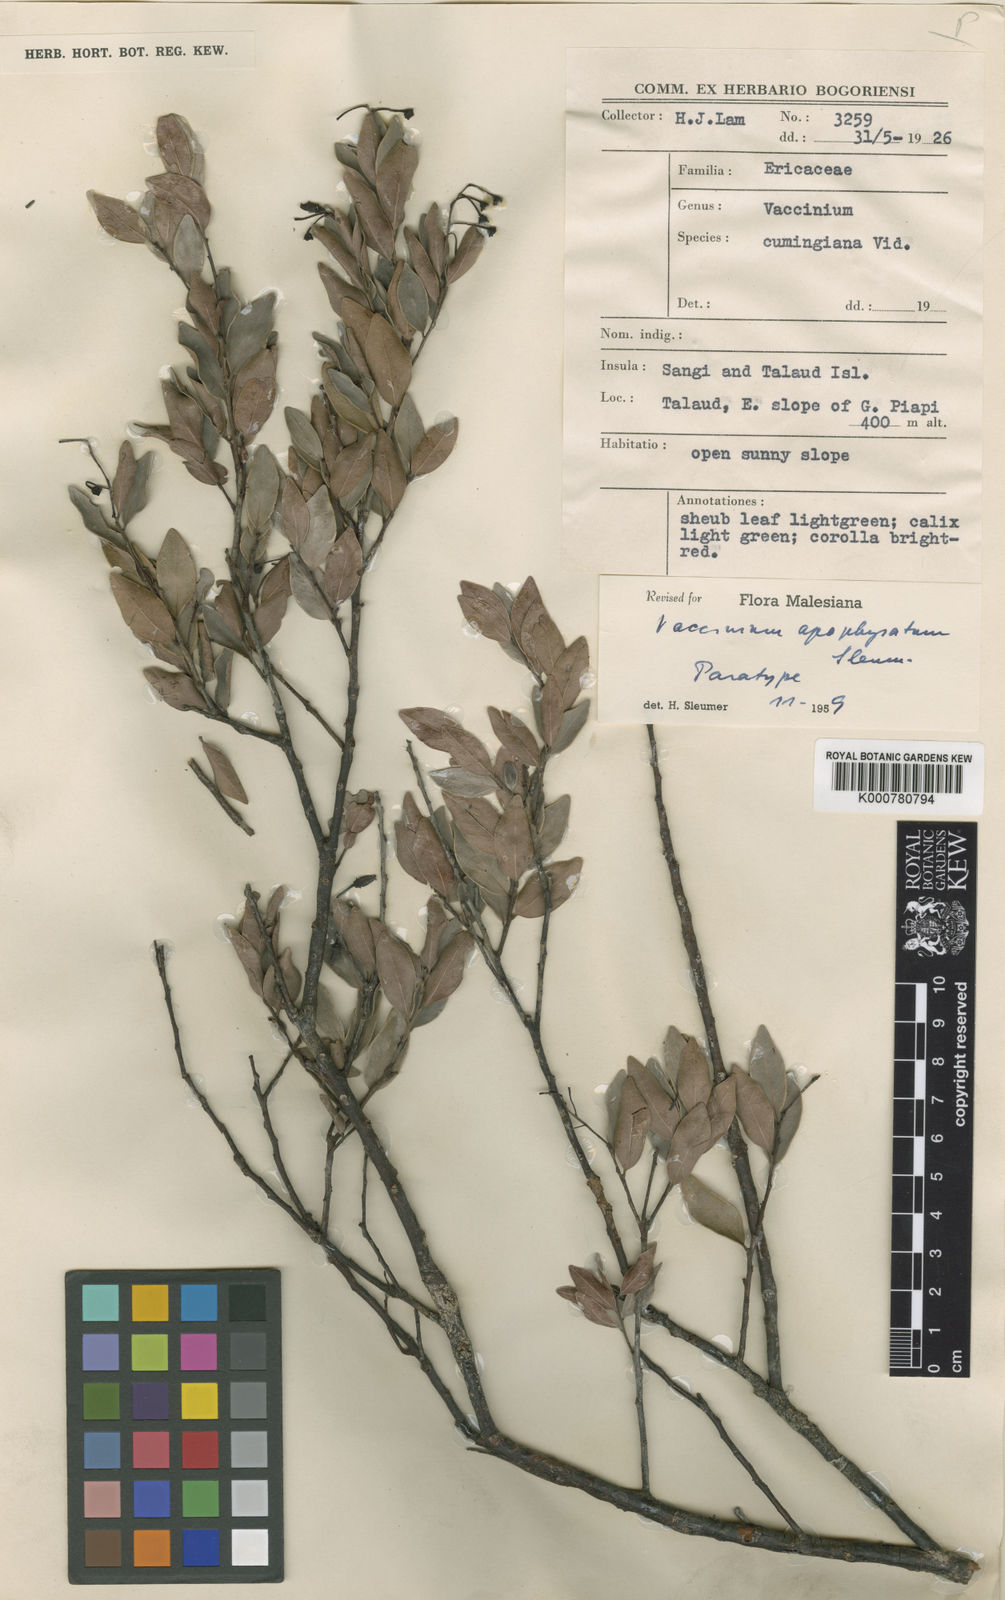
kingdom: Plantae
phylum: Tracheophyta
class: Magnoliopsida
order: Ericales
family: Ericaceae
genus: Vaccinium
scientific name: Vaccinium apophysatum
